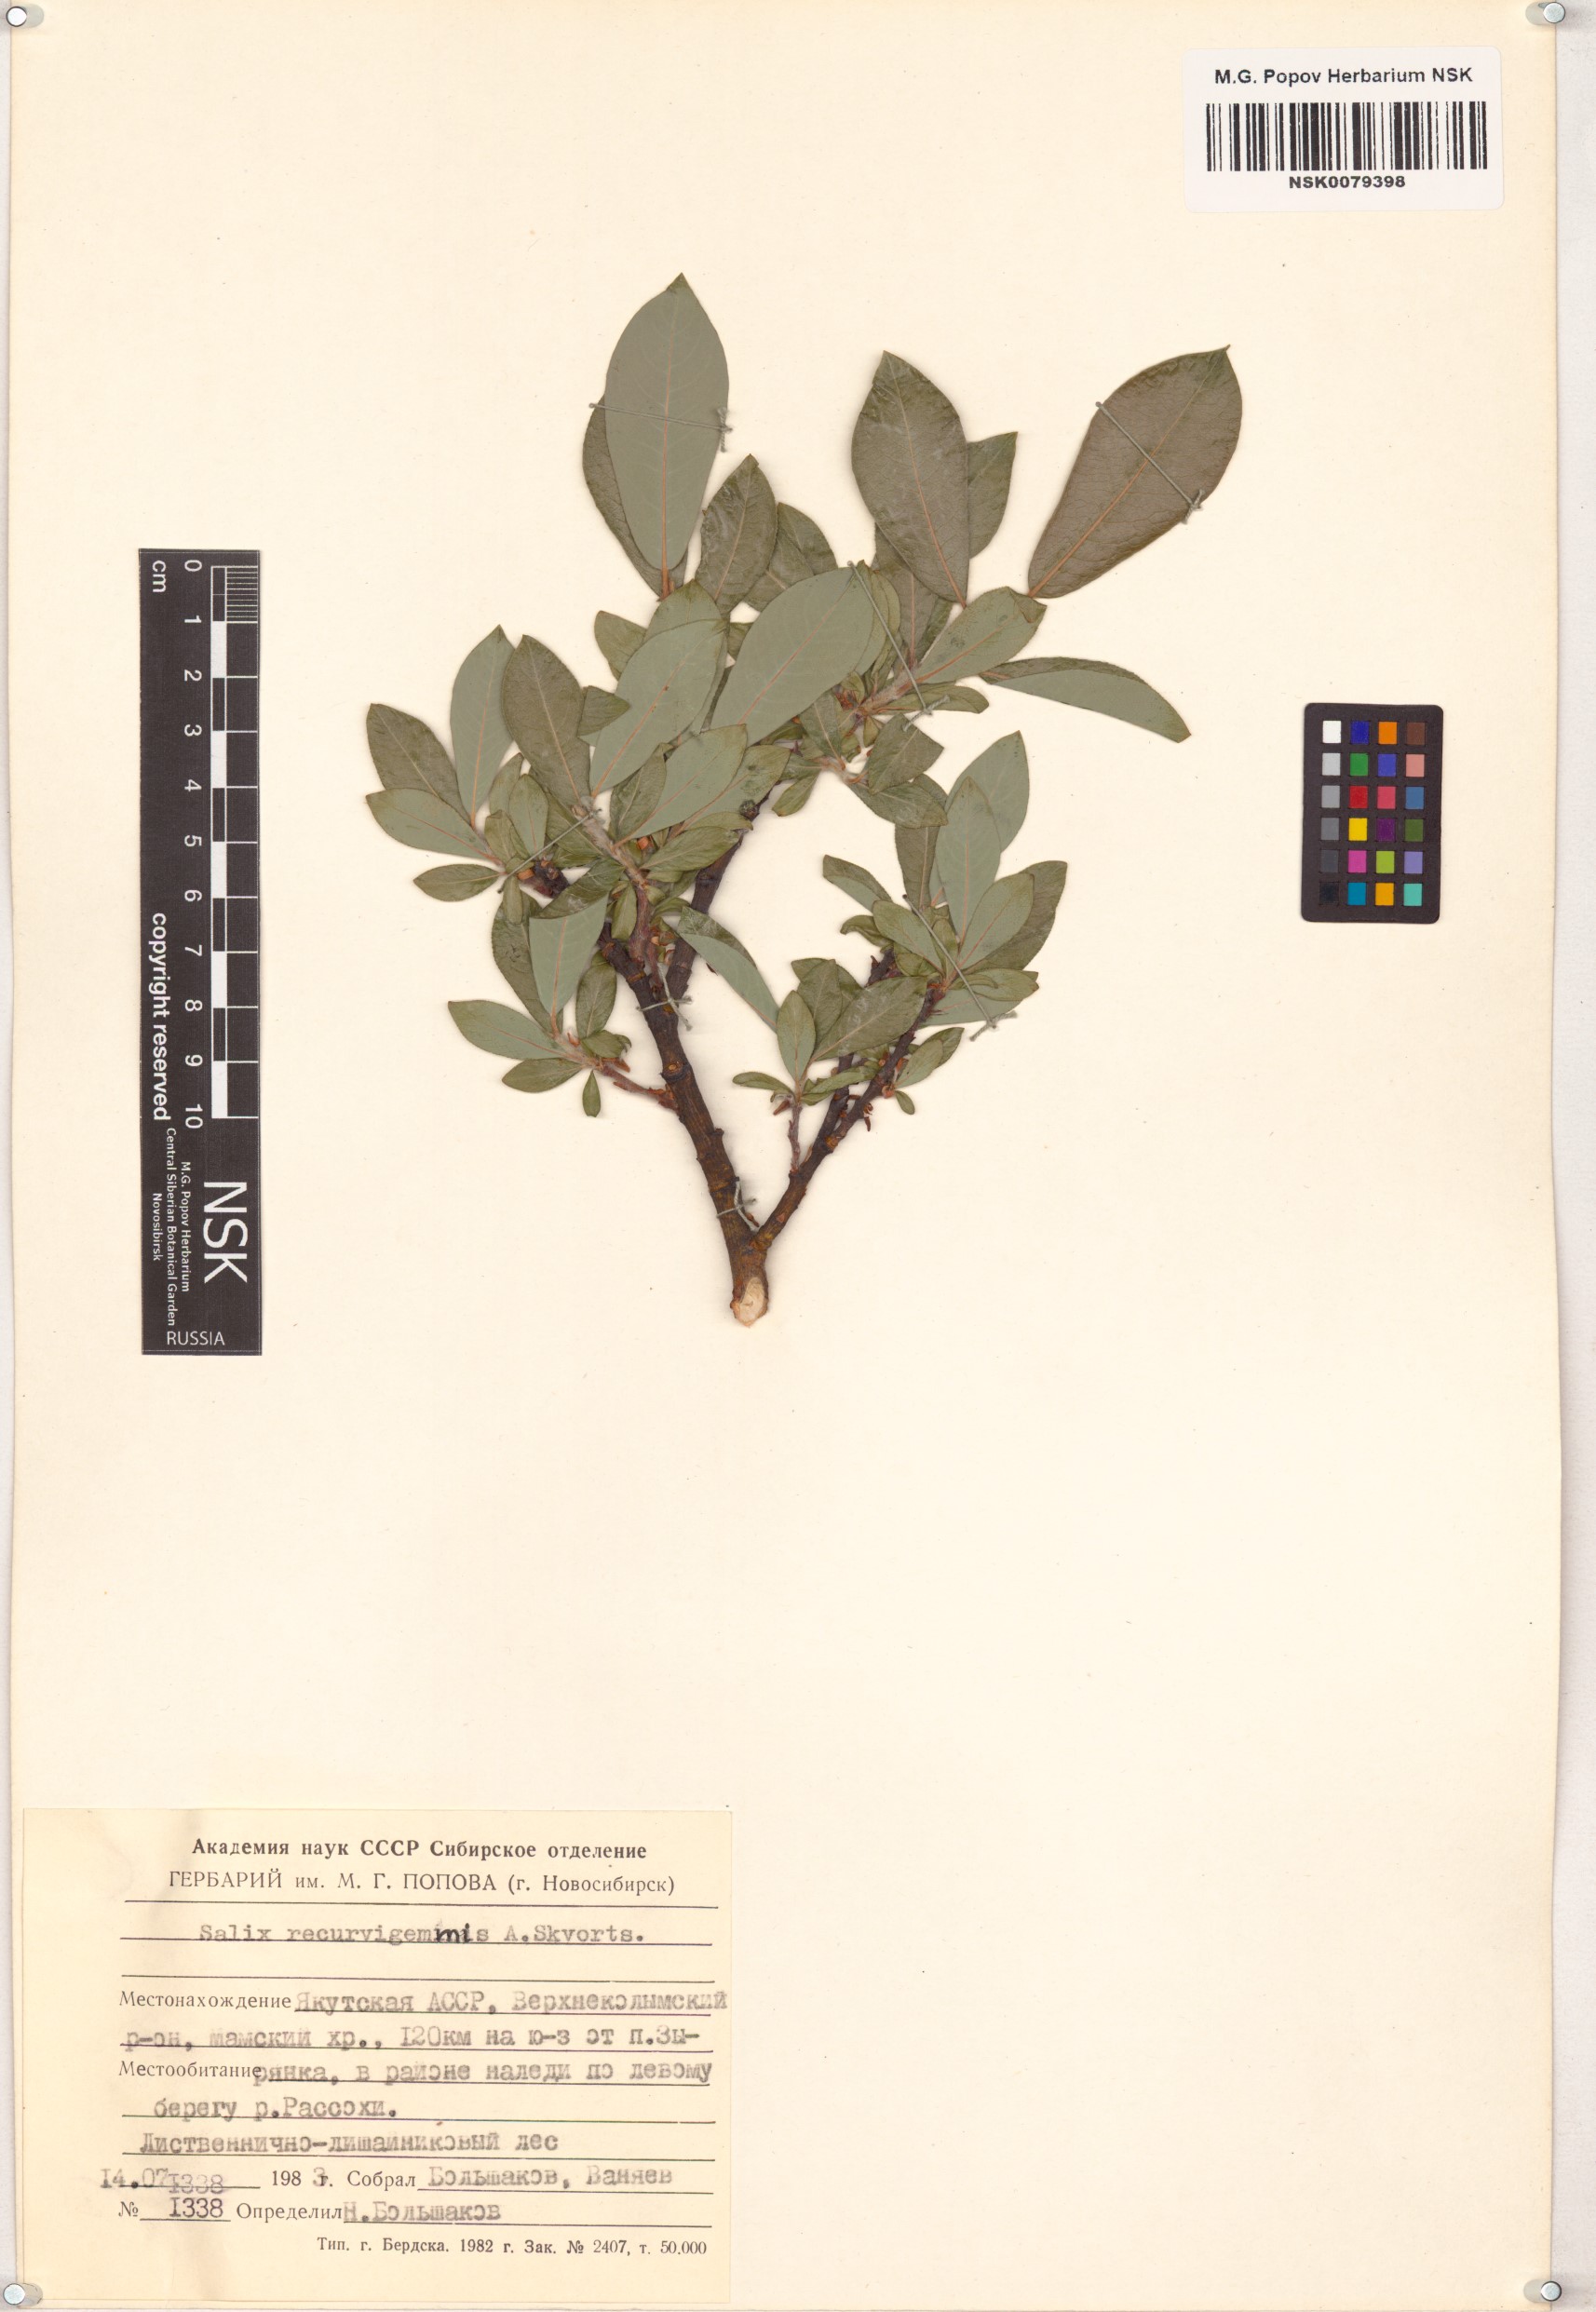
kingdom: Plantae
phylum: Tracheophyta
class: Magnoliopsida
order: Malpighiales
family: Salicaceae
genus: Salix
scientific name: Salix recurvigemmata
